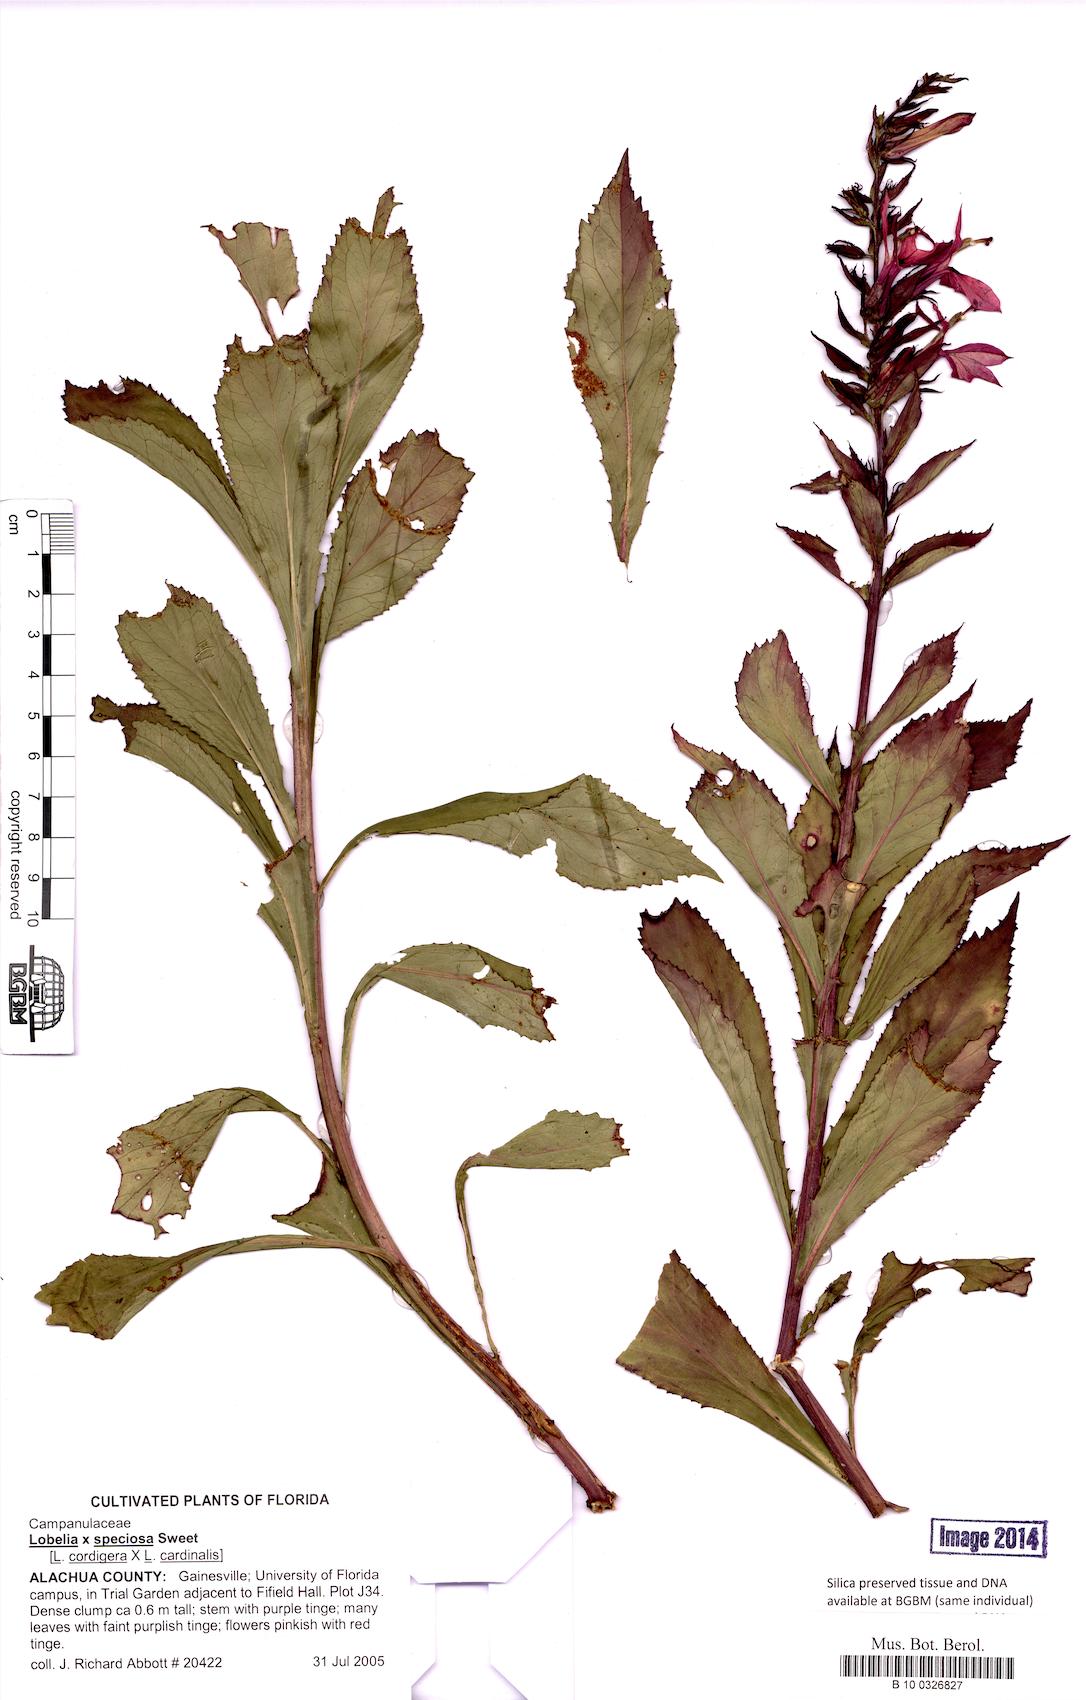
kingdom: Plantae
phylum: Tracheophyta
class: Magnoliopsida
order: Asterales
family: Campanulaceae
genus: Lobelia
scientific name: Lobelia speciosa
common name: Showy lobelia
